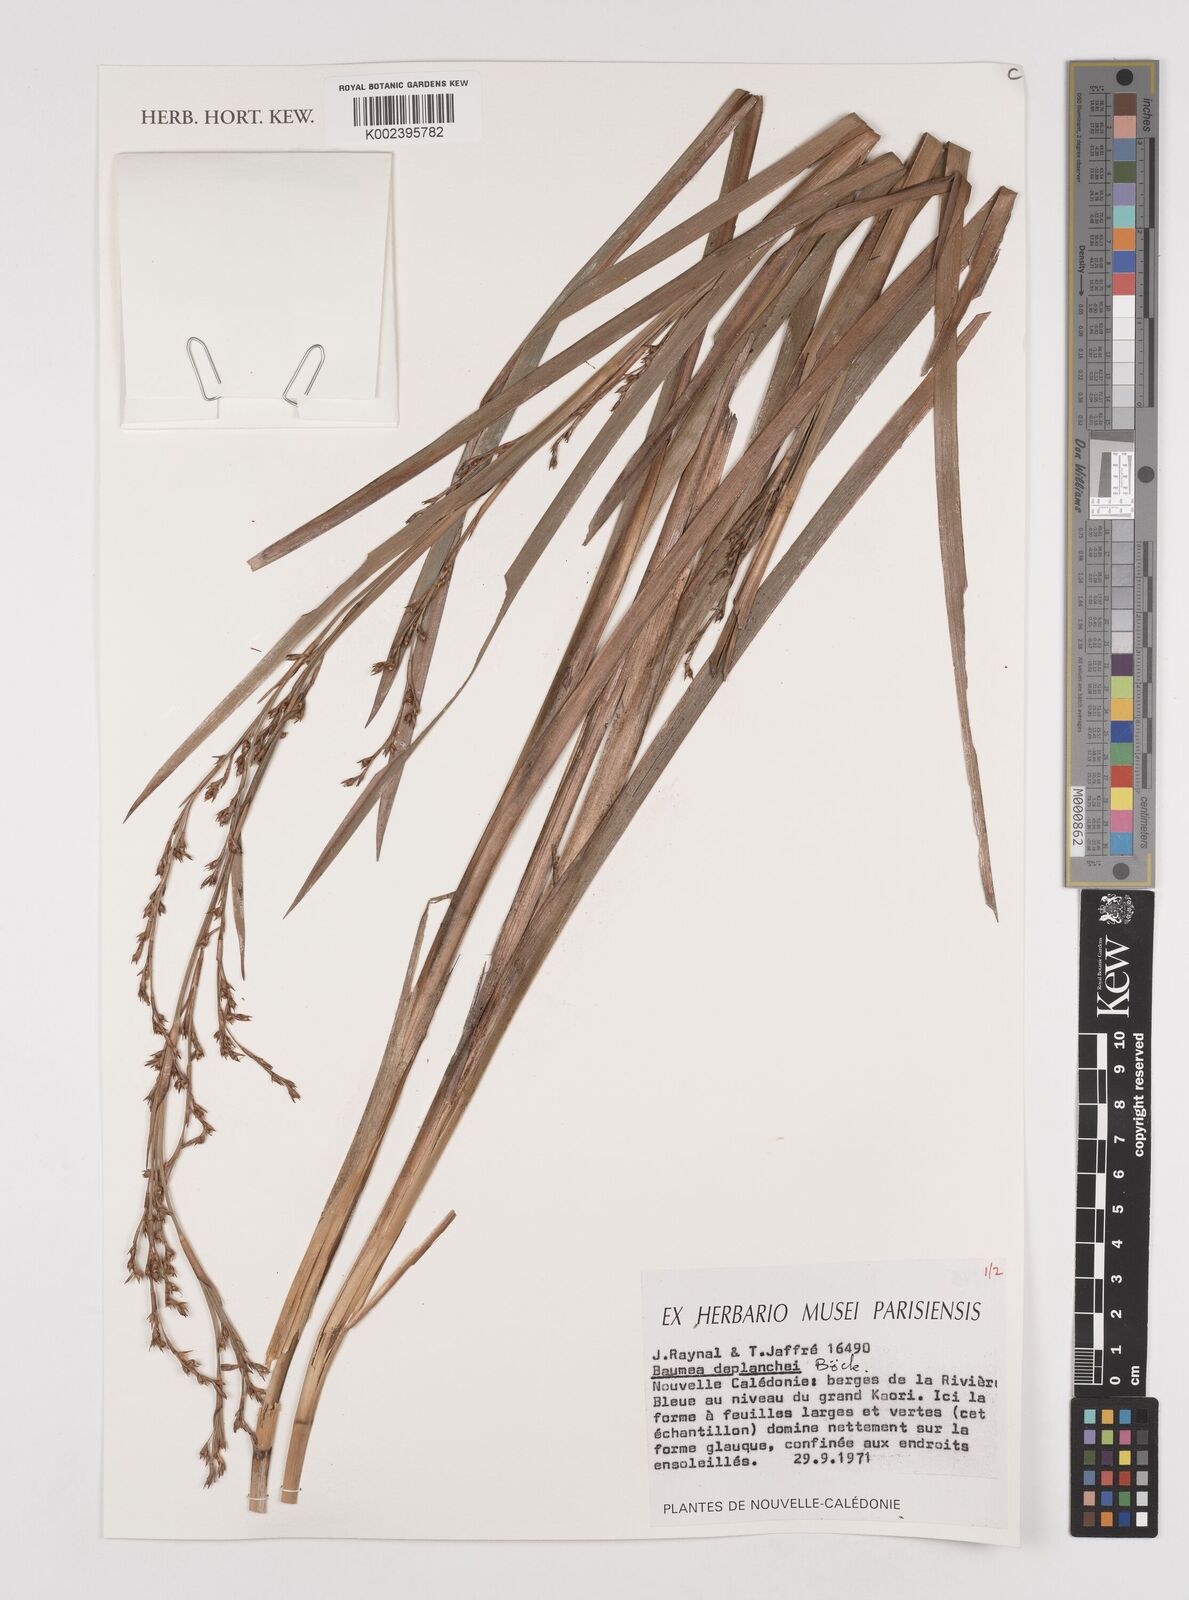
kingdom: Plantae
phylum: Tracheophyta
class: Liliopsida
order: Poales
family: Cyperaceae
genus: Machaerina
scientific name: Machaerina deplanchei
